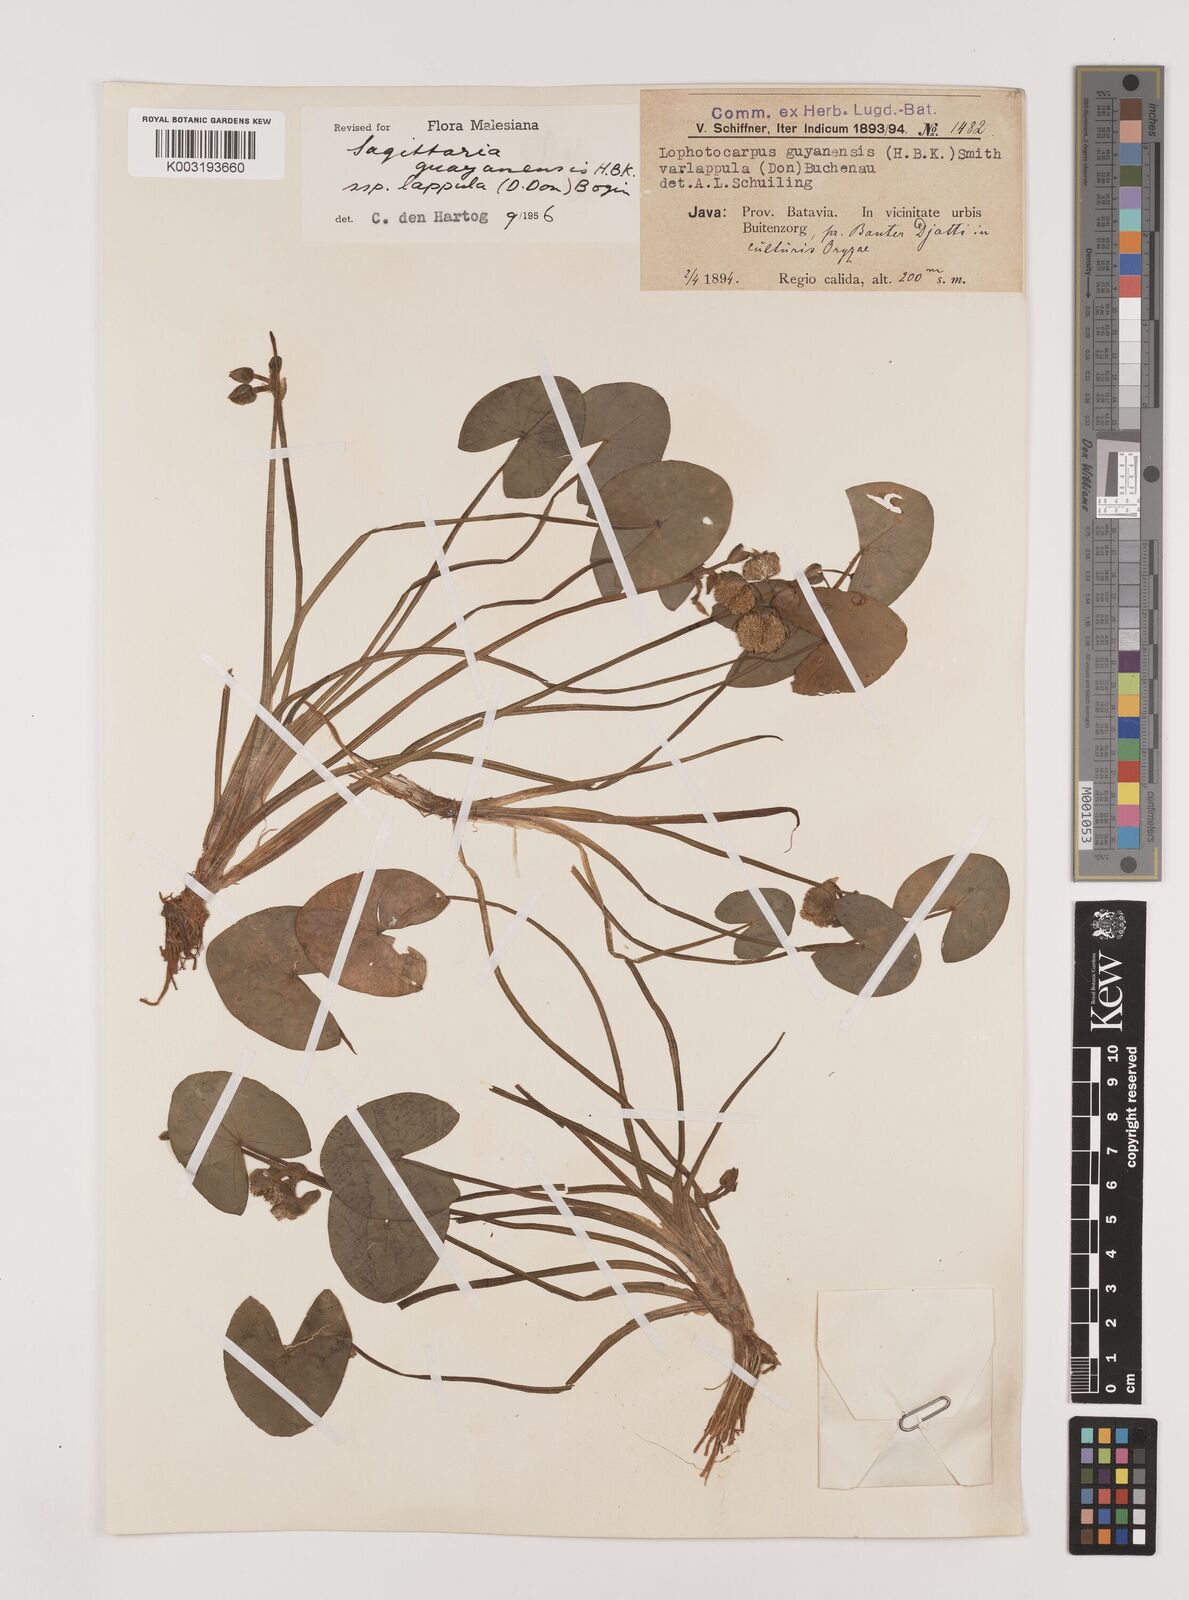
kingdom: Plantae
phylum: Tracheophyta
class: Liliopsida
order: Alismatales
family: Alismataceae
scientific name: Alismataceae
